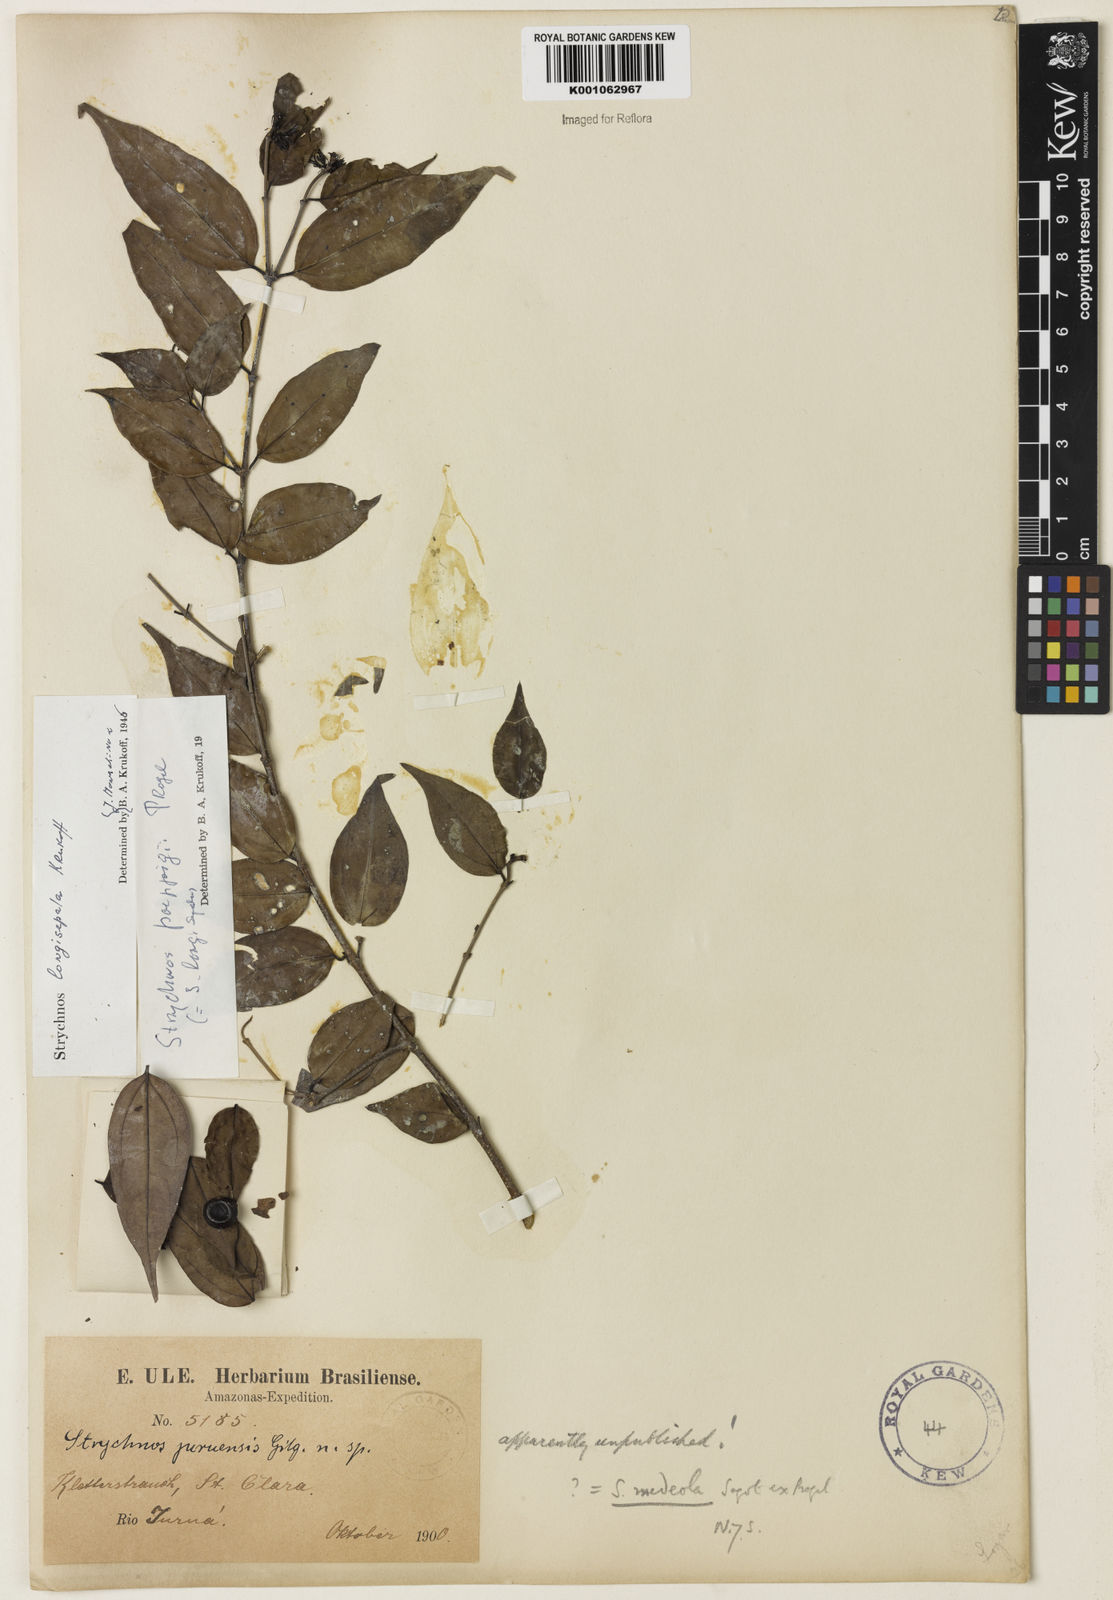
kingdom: Plantae
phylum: Tracheophyta
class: Magnoliopsida
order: Gentianales
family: Loganiaceae
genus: Strychnos
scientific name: Strychnos poeppigii
